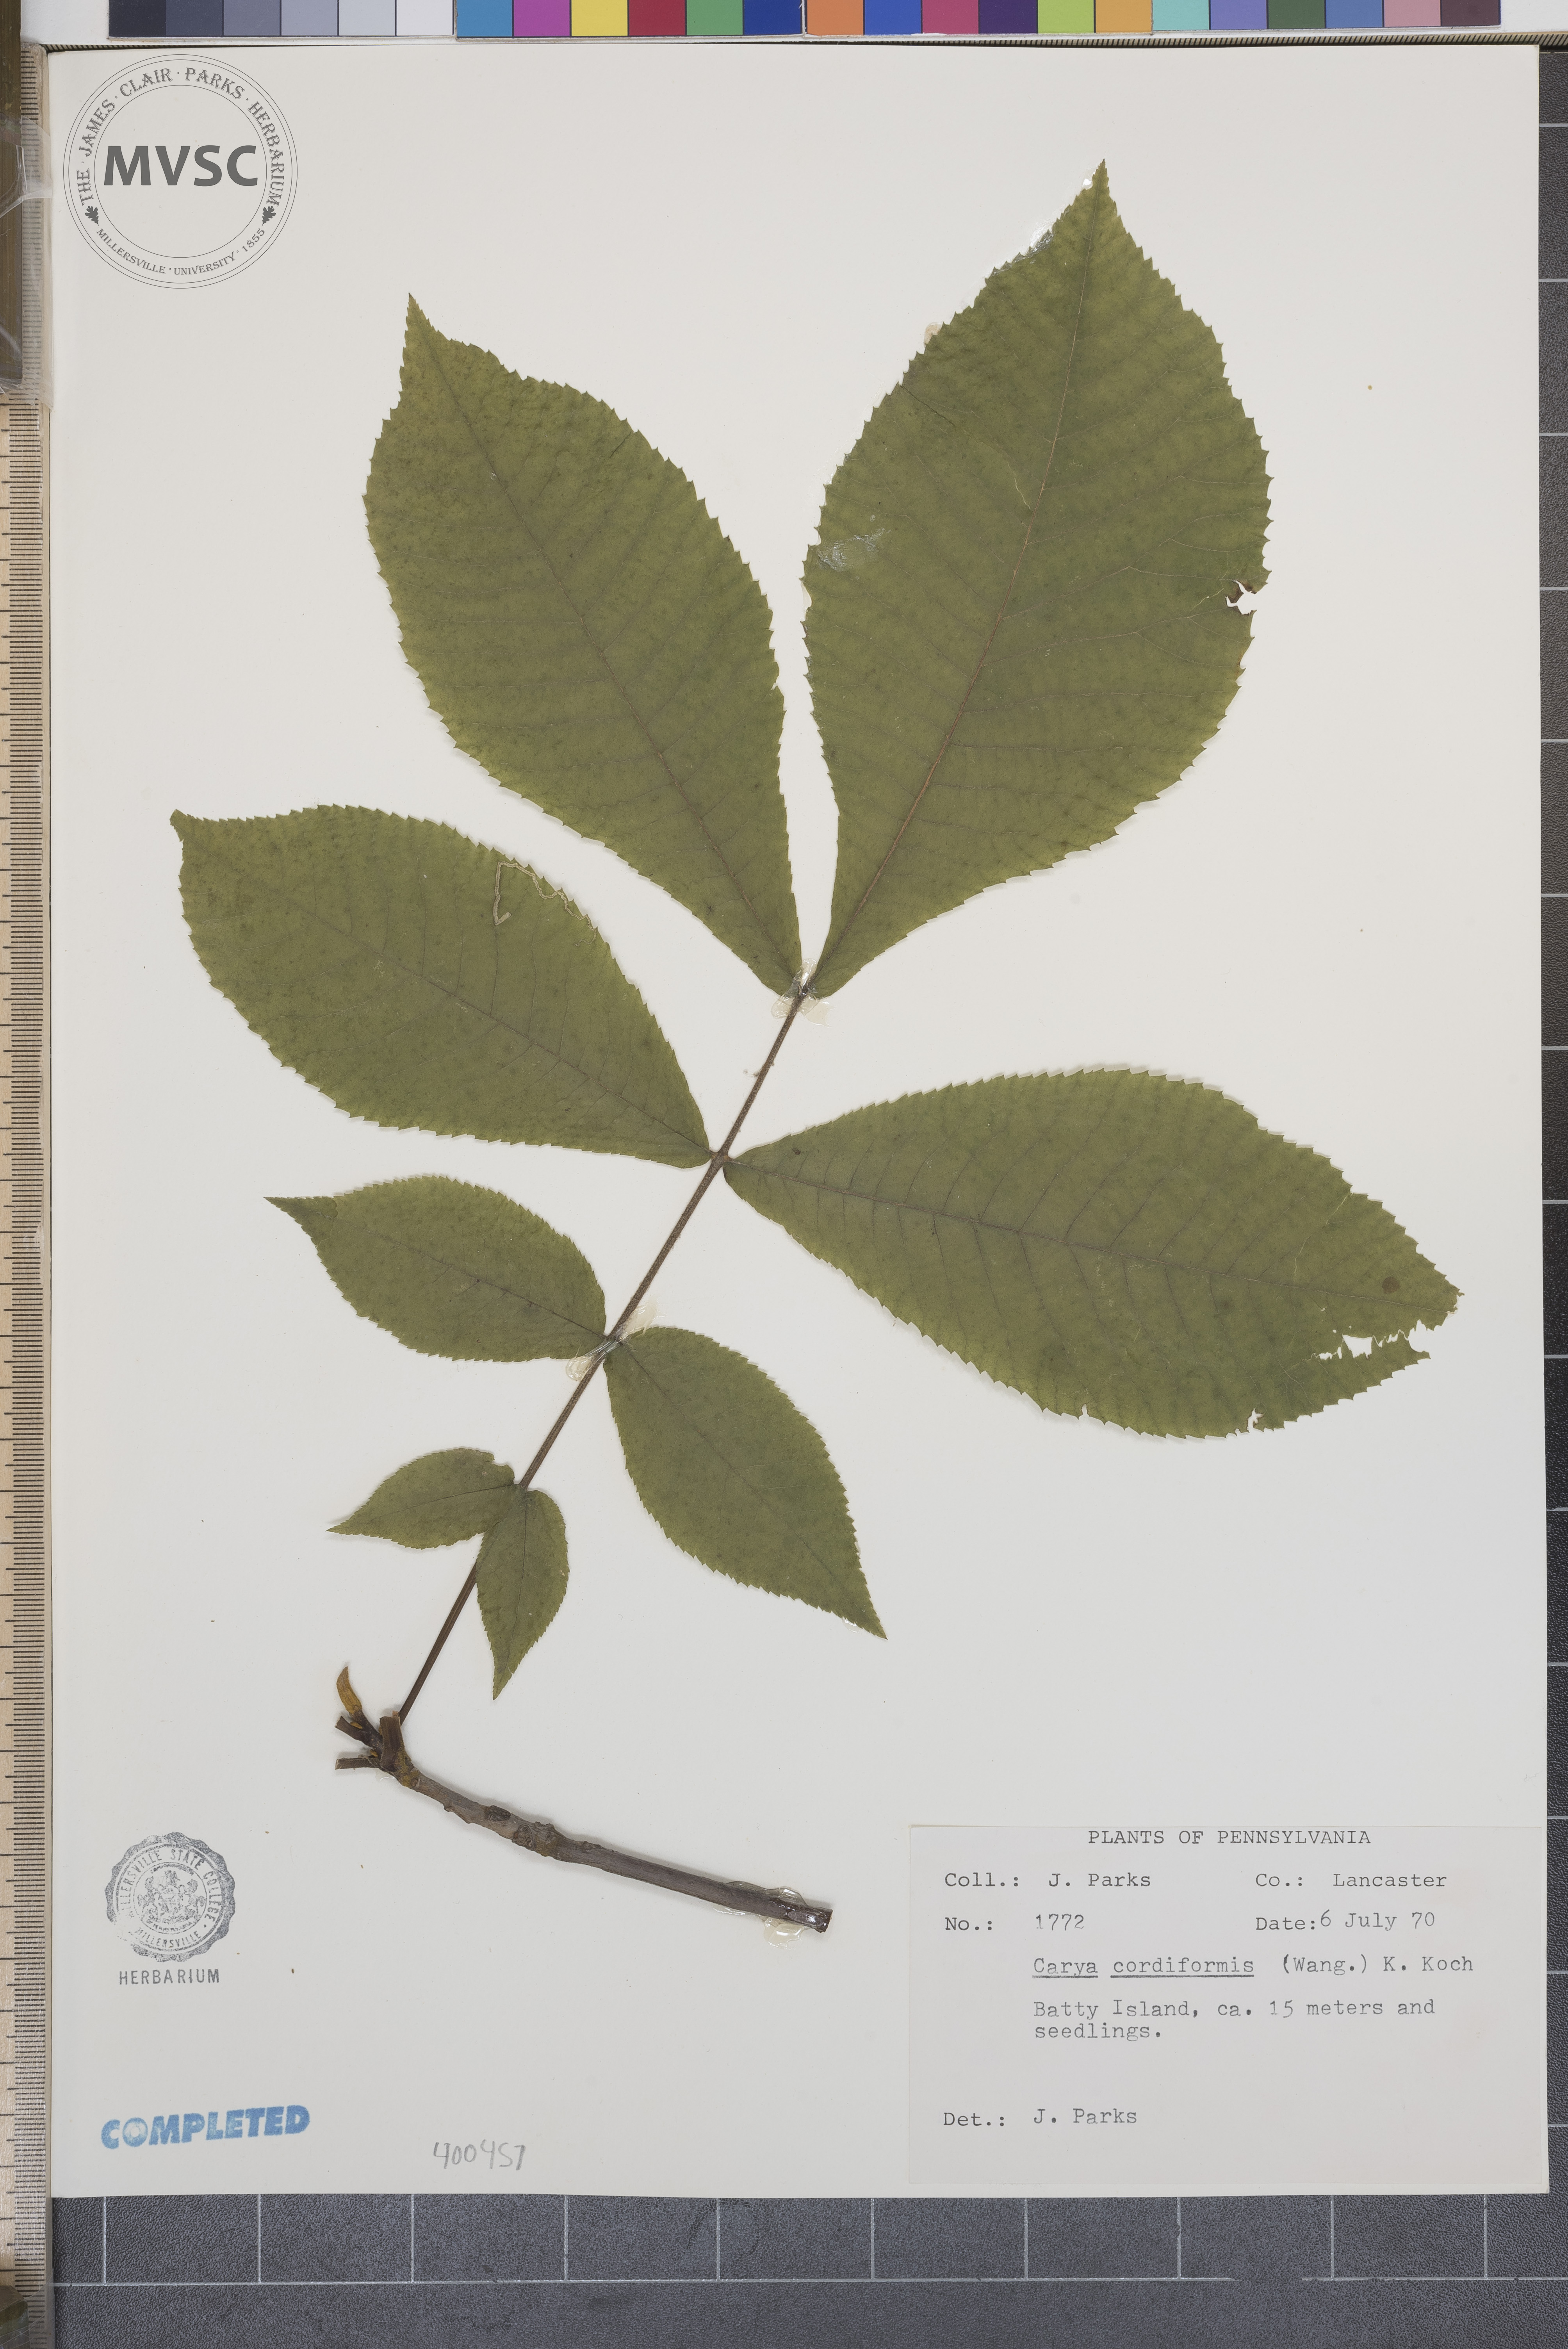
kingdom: Plantae
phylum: Tracheophyta
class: Magnoliopsida
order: Fagales
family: Juglandaceae
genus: Carya
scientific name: Carya cordiformis
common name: bitternut hickory
